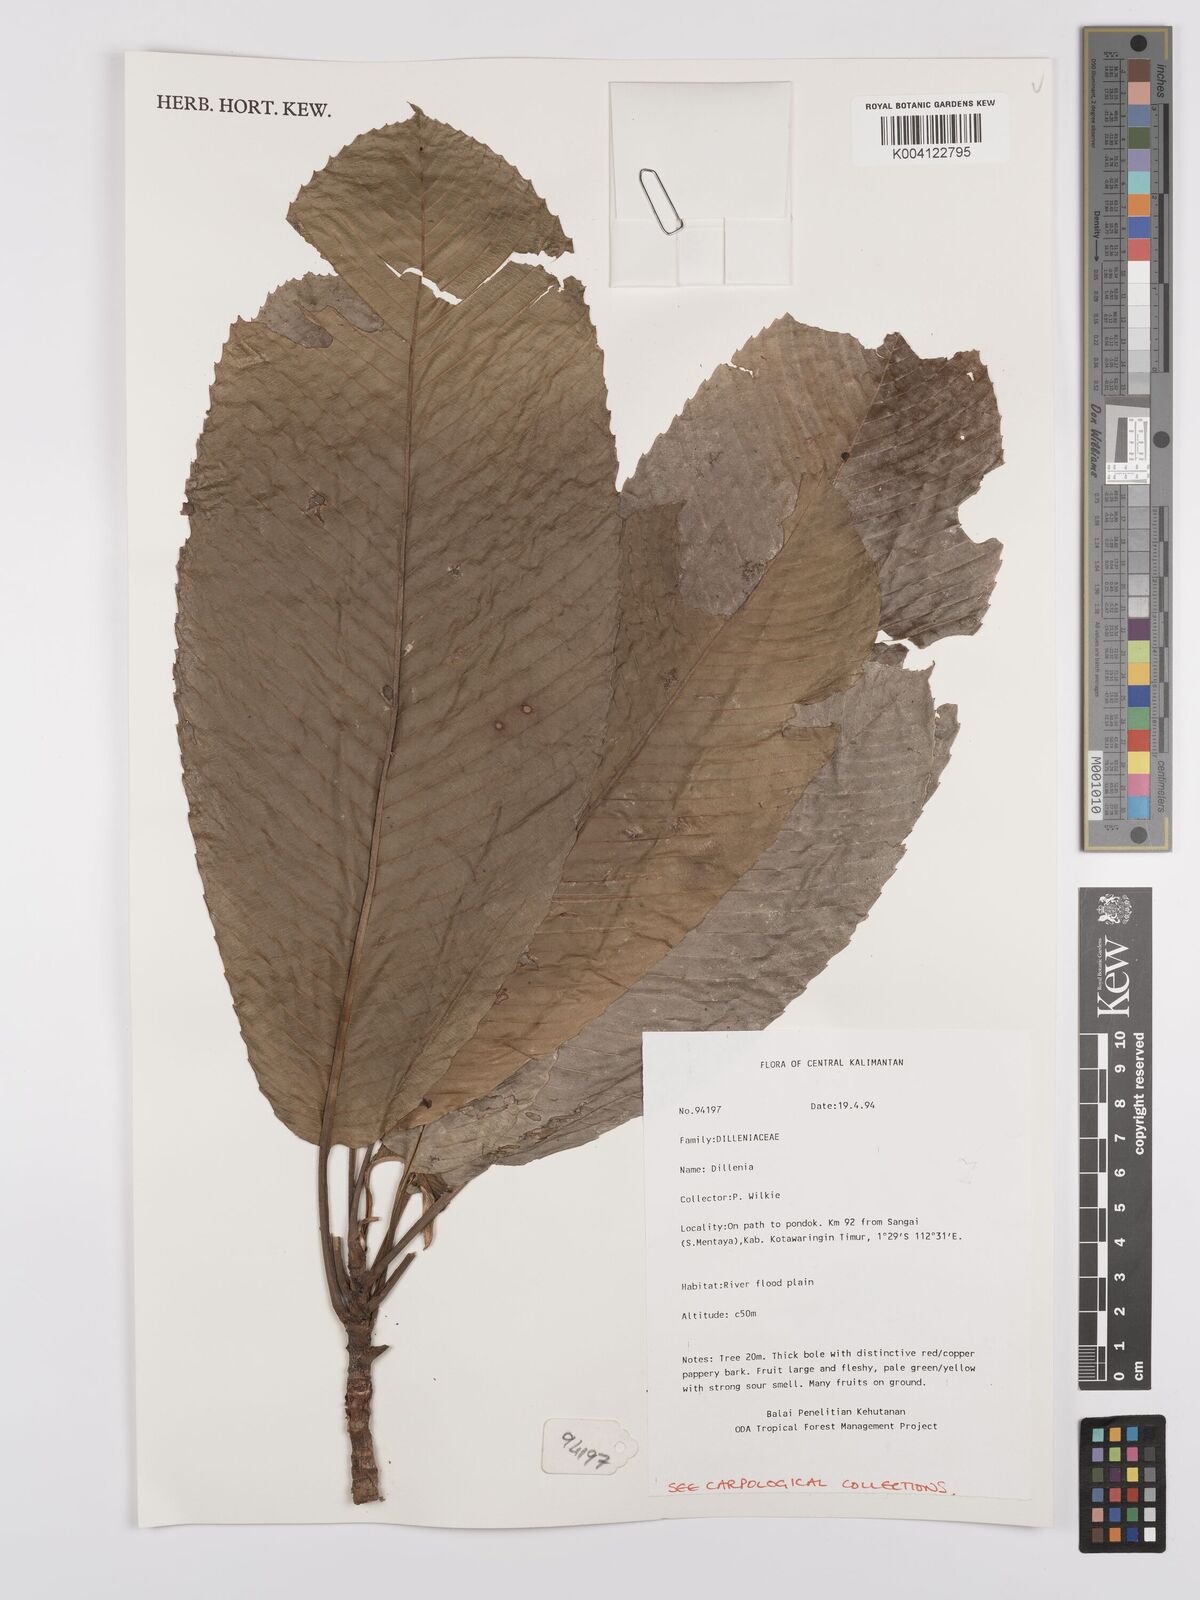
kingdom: Plantae
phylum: Tracheophyta
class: Magnoliopsida
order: Dilleniales
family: Dilleniaceae
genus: Dillenia
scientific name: Dillenia
